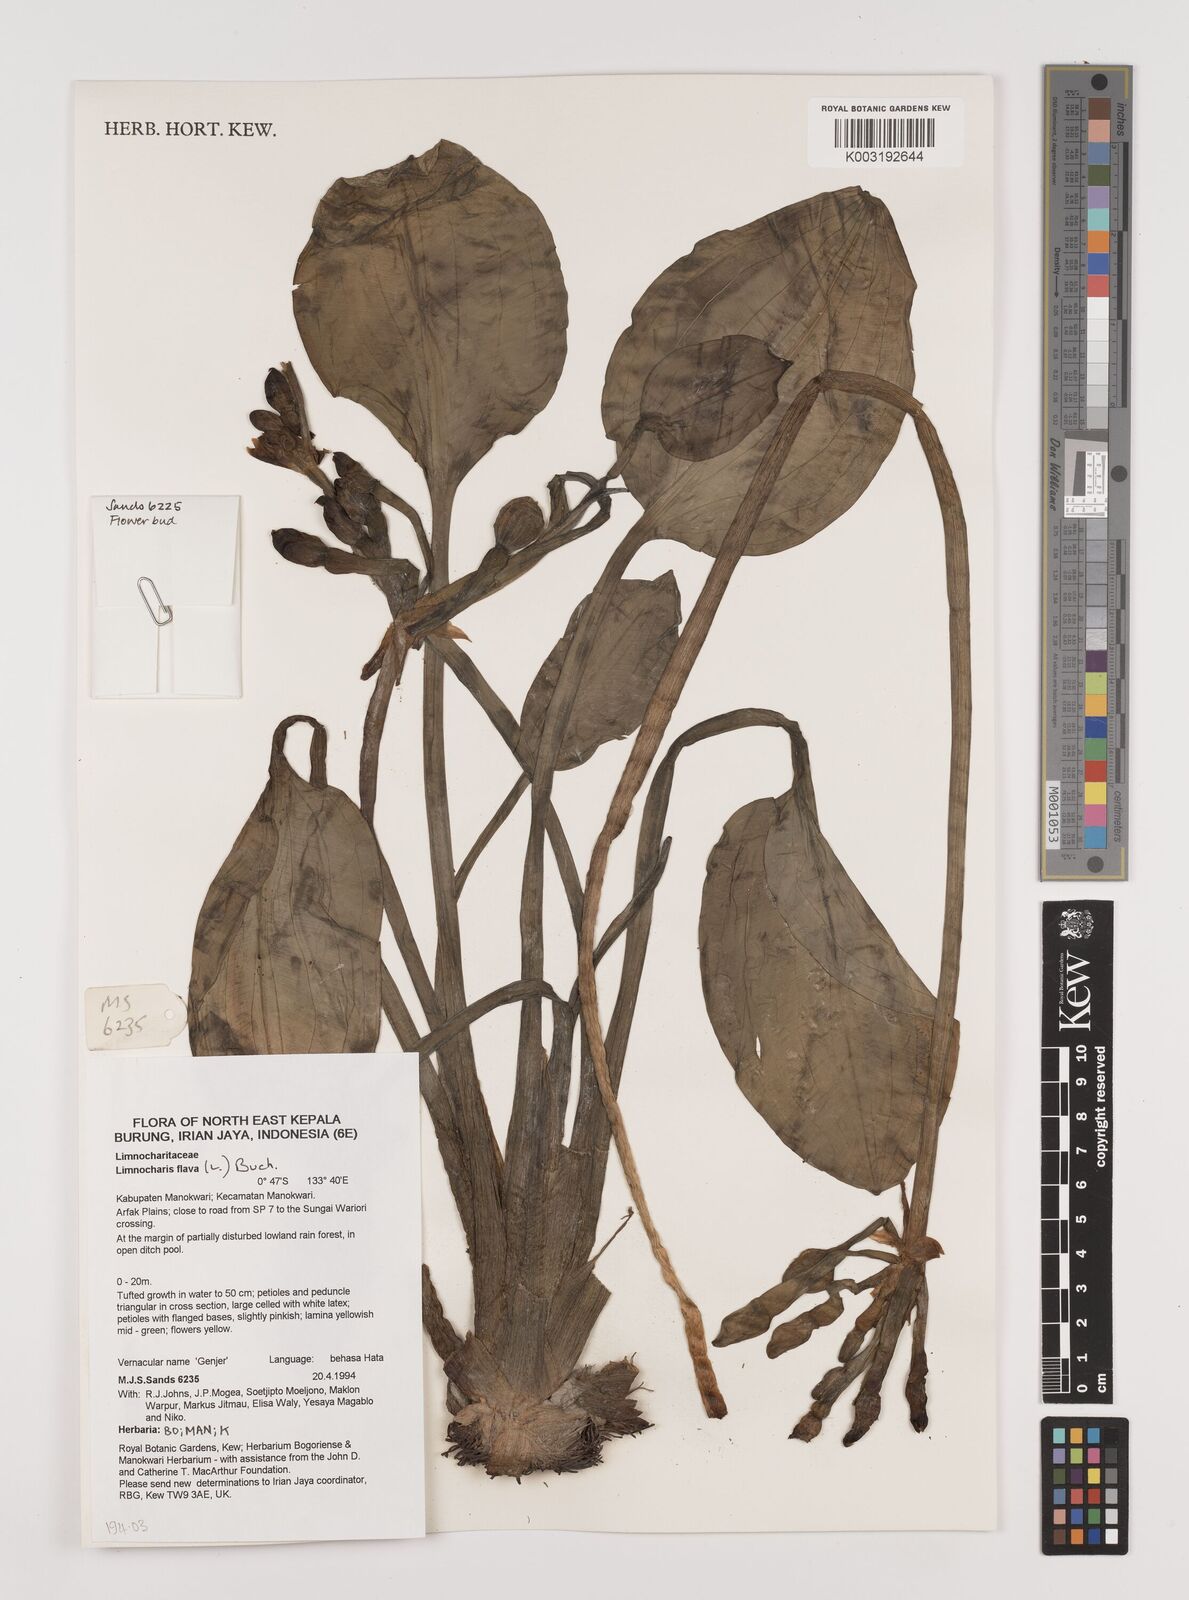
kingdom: Plantae
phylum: Tracheophyta
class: Liliopsida
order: Alismatales
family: Alismataceae
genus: Limnocharis
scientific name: Limnocharis flava
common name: Sawah-flower-rush
